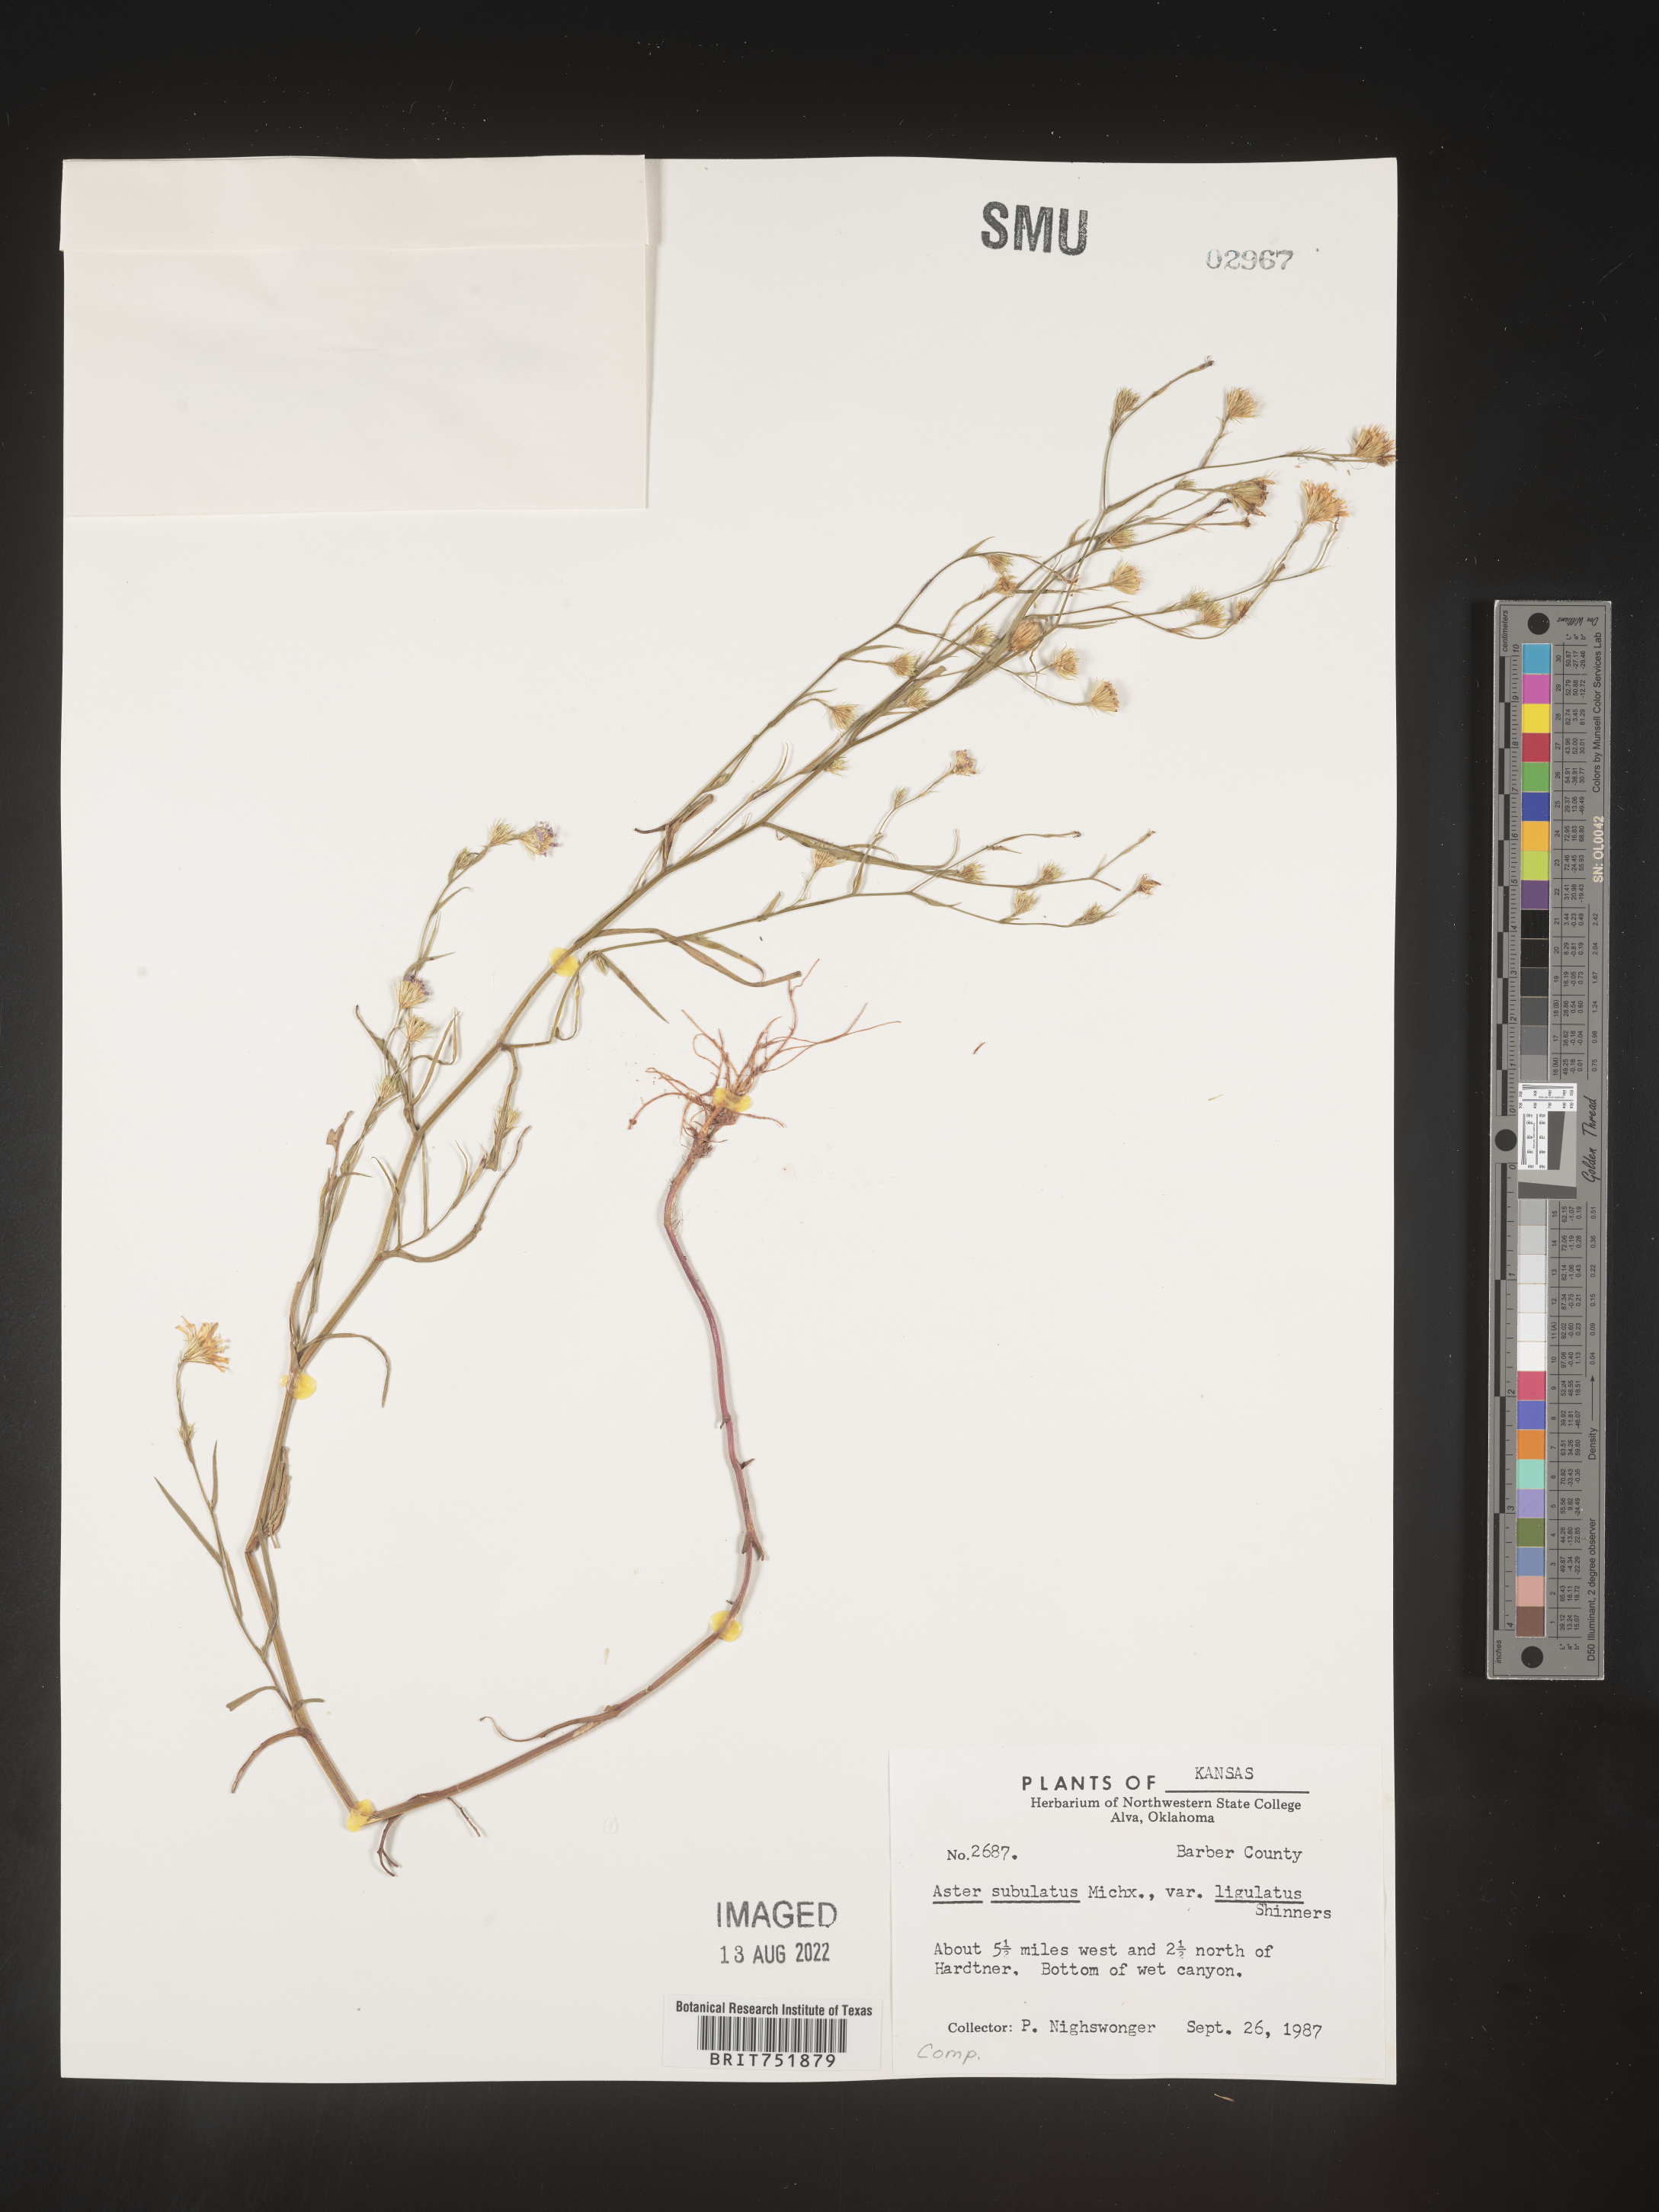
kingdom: Plantae
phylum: Tracheophyta
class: Magnoliopsida
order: Asterales
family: Asteraceae
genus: Symphyotrichum
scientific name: Symphyotrichum divaricatum
